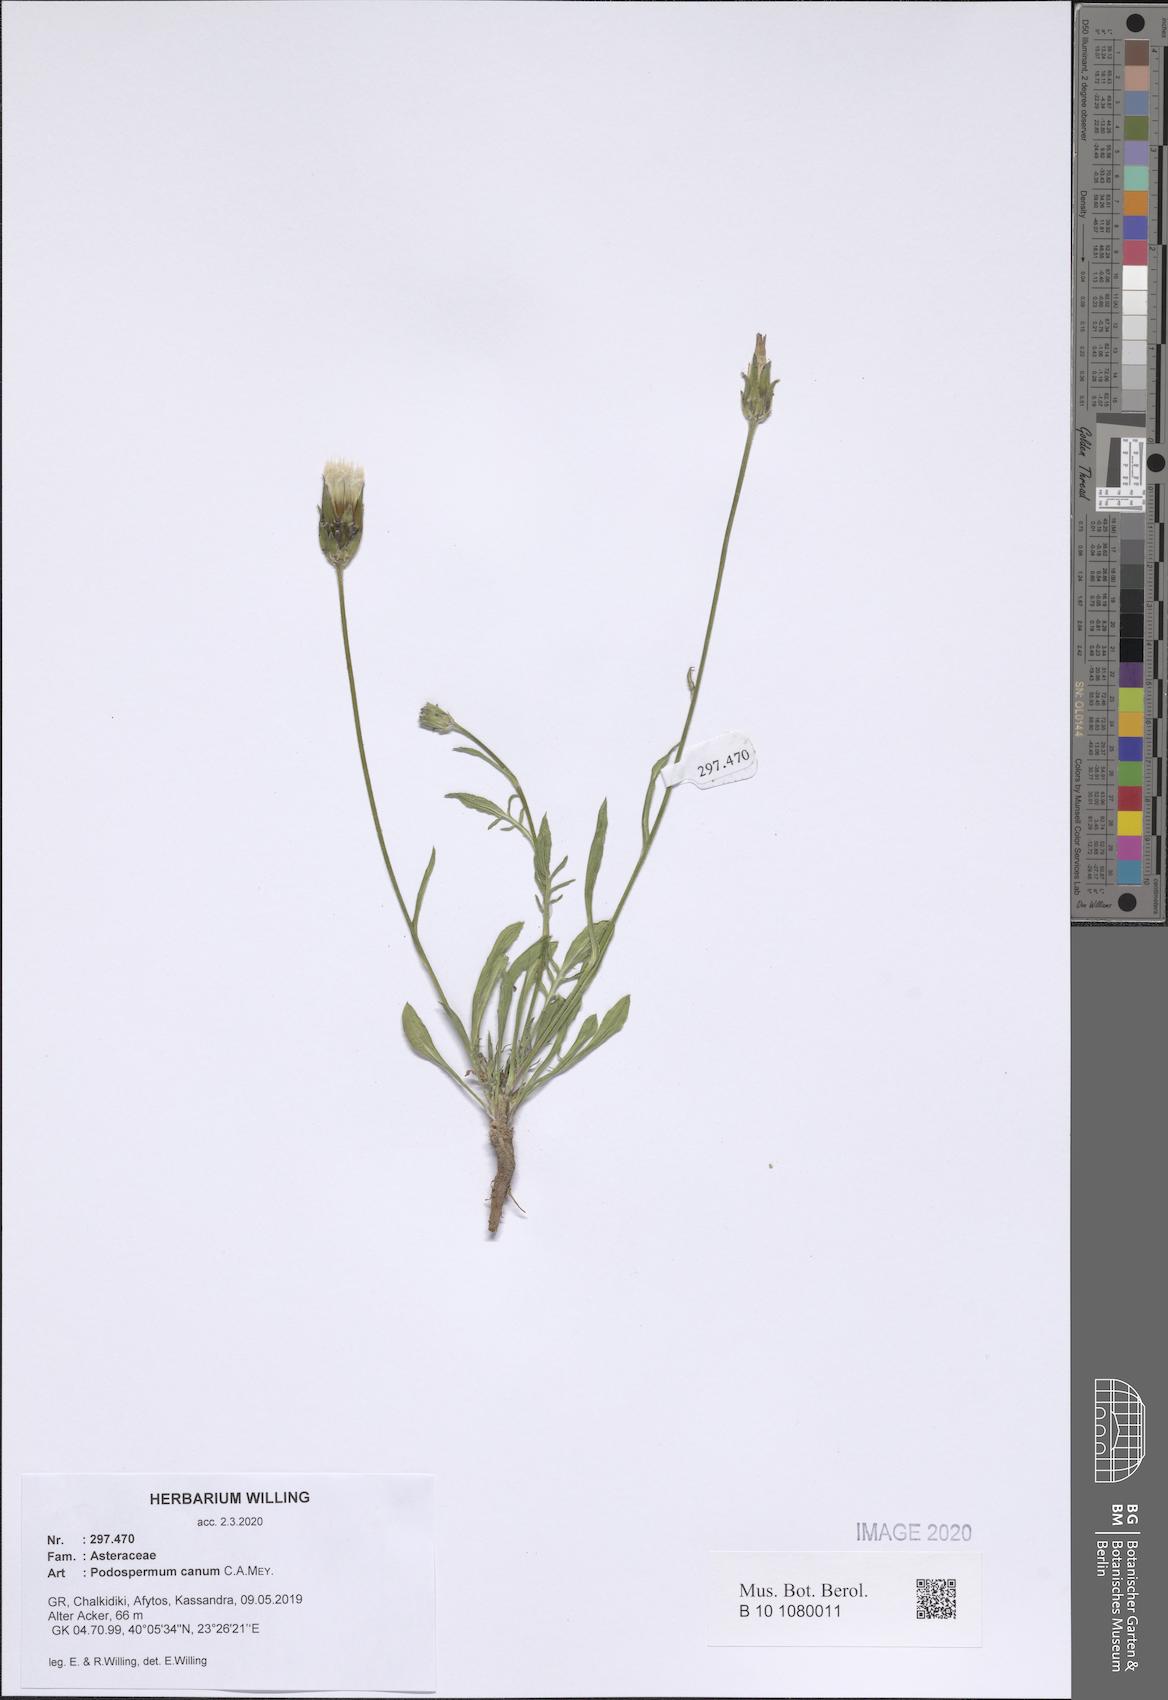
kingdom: Plantae
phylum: Tracheophyta
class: Magnoliopsida
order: Asterales
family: Asteraceae
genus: Scorzonera
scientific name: Scorzonera cana
